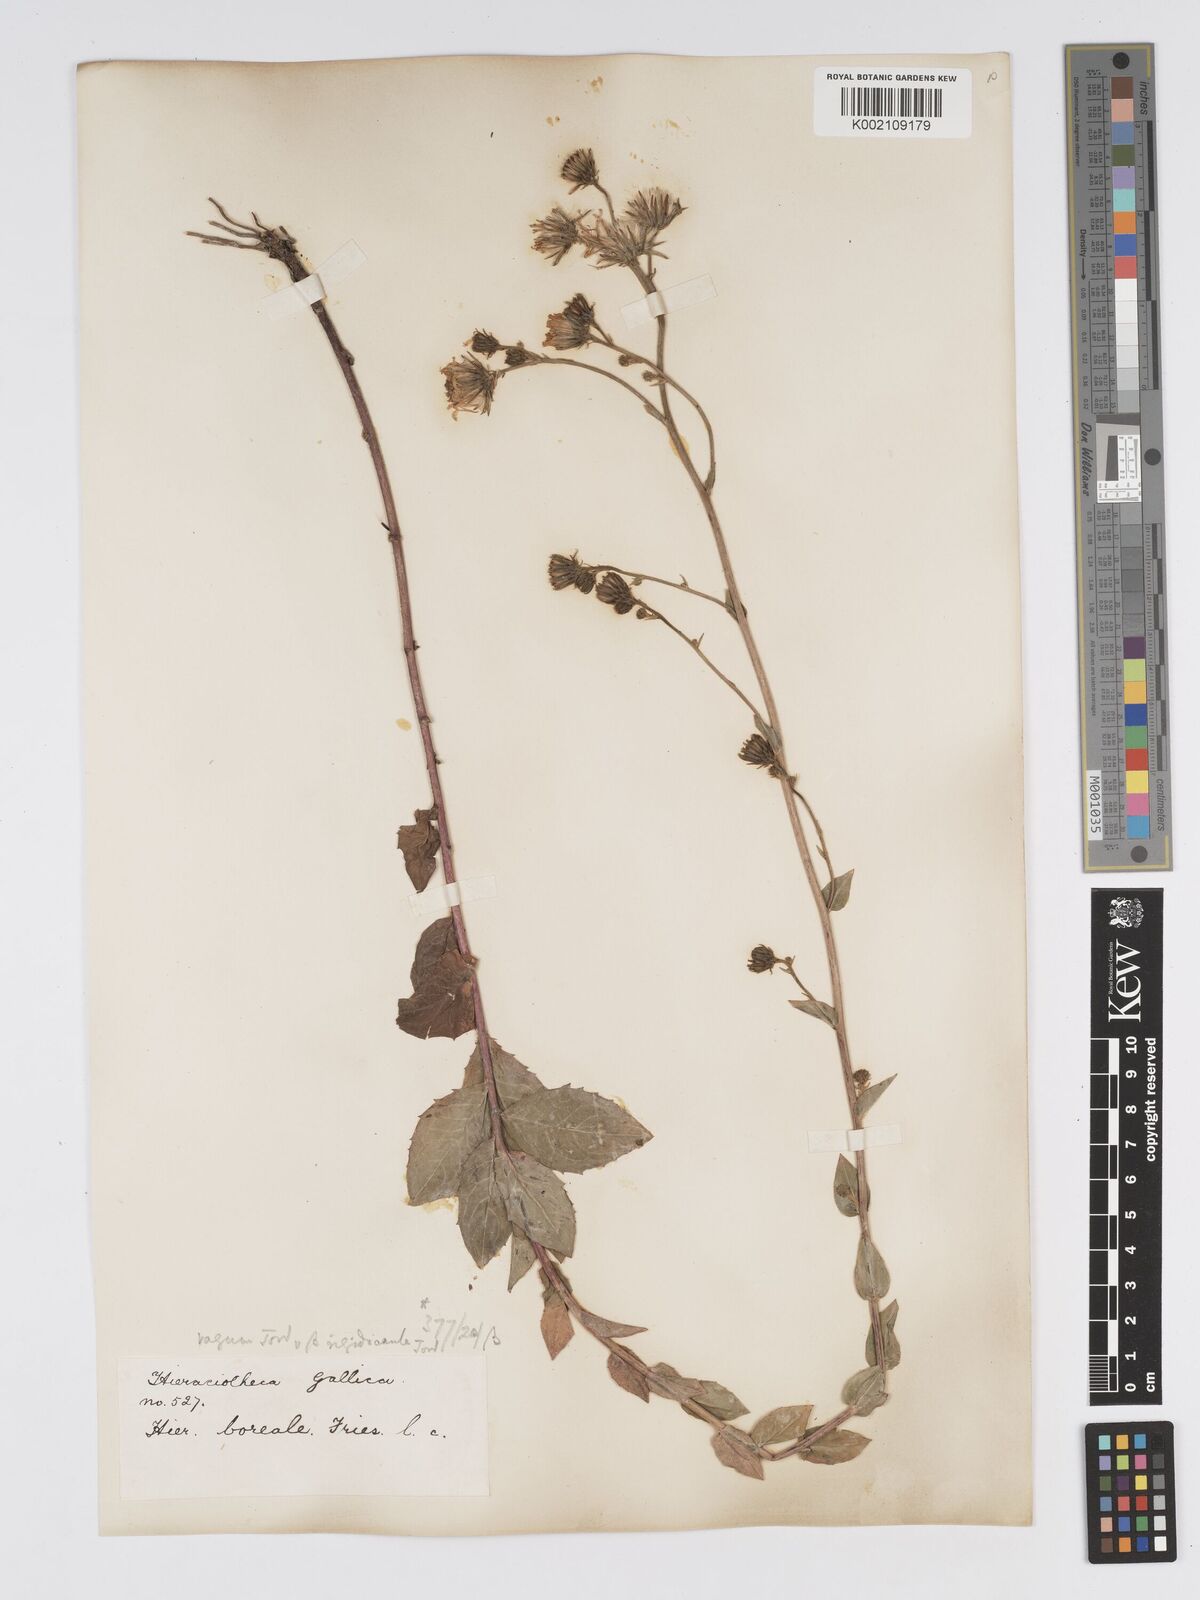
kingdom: Plantae
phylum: Tracheophyta
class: Magnoliopsida
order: Asterales
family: Asteraceae
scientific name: Asteraceae
